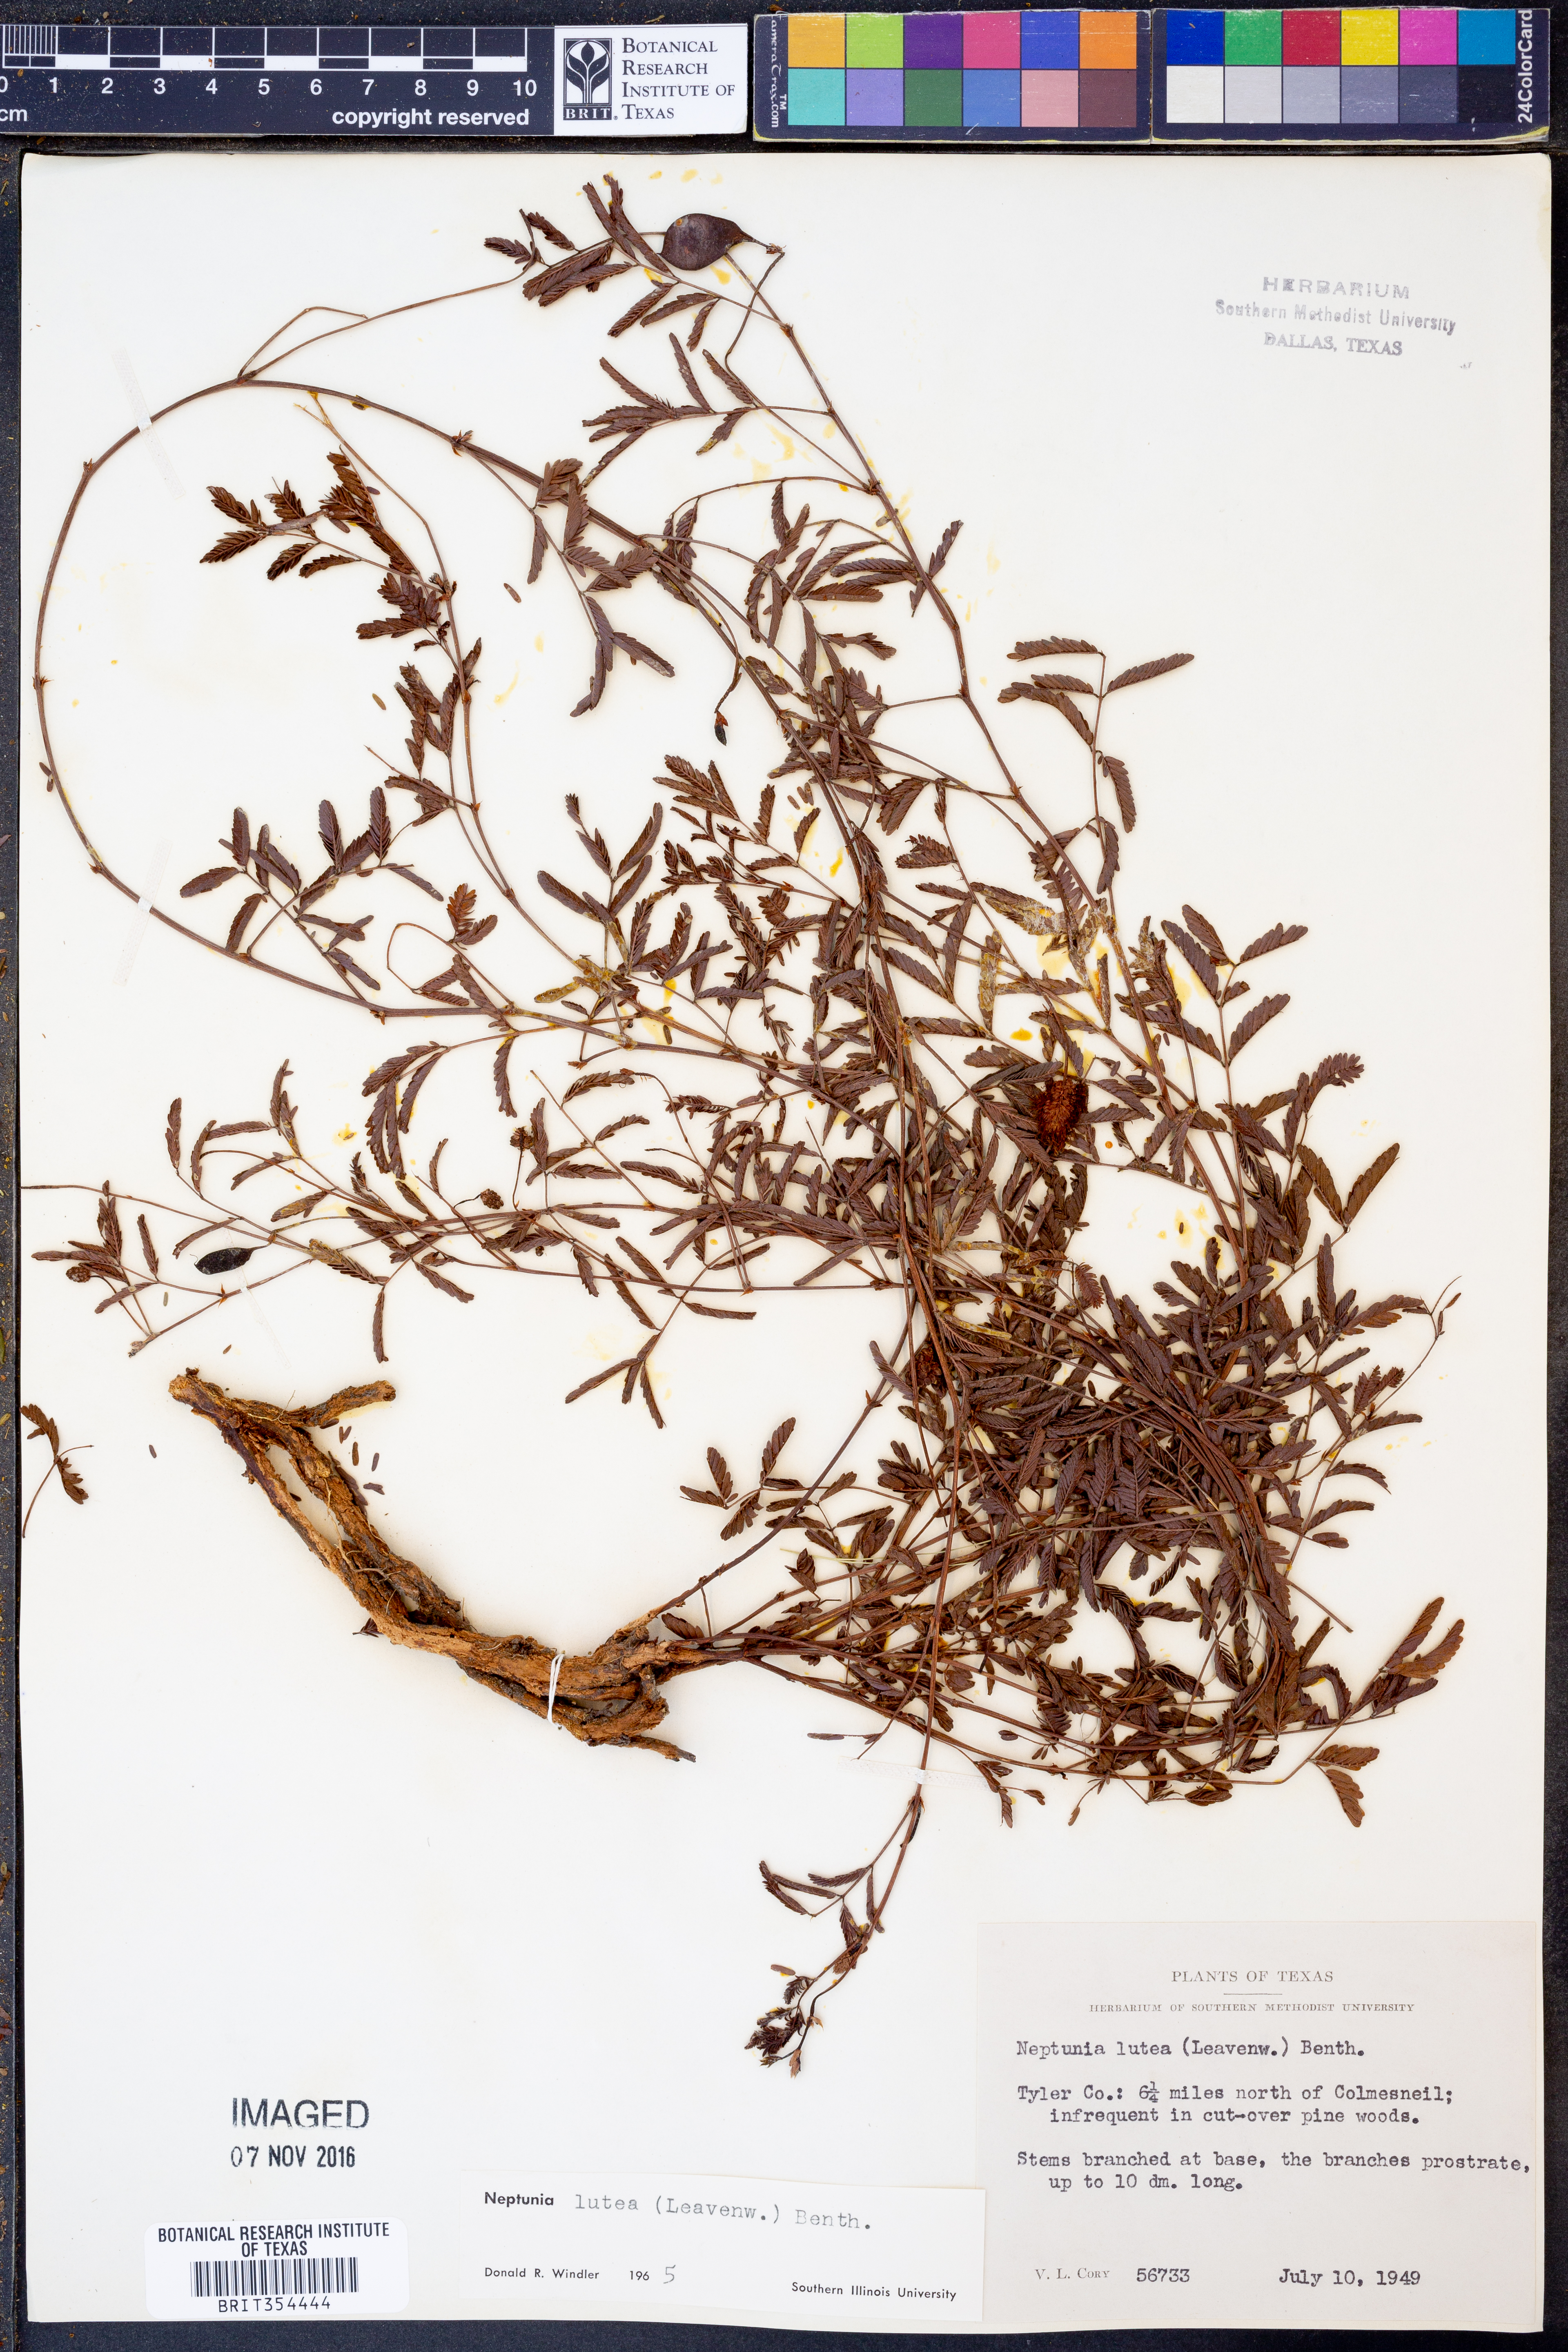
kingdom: Plantae
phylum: Tracheophyta
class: Magnoliopsida
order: Fabales
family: Fabaceae
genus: Neptunia
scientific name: Neptunia lutea
